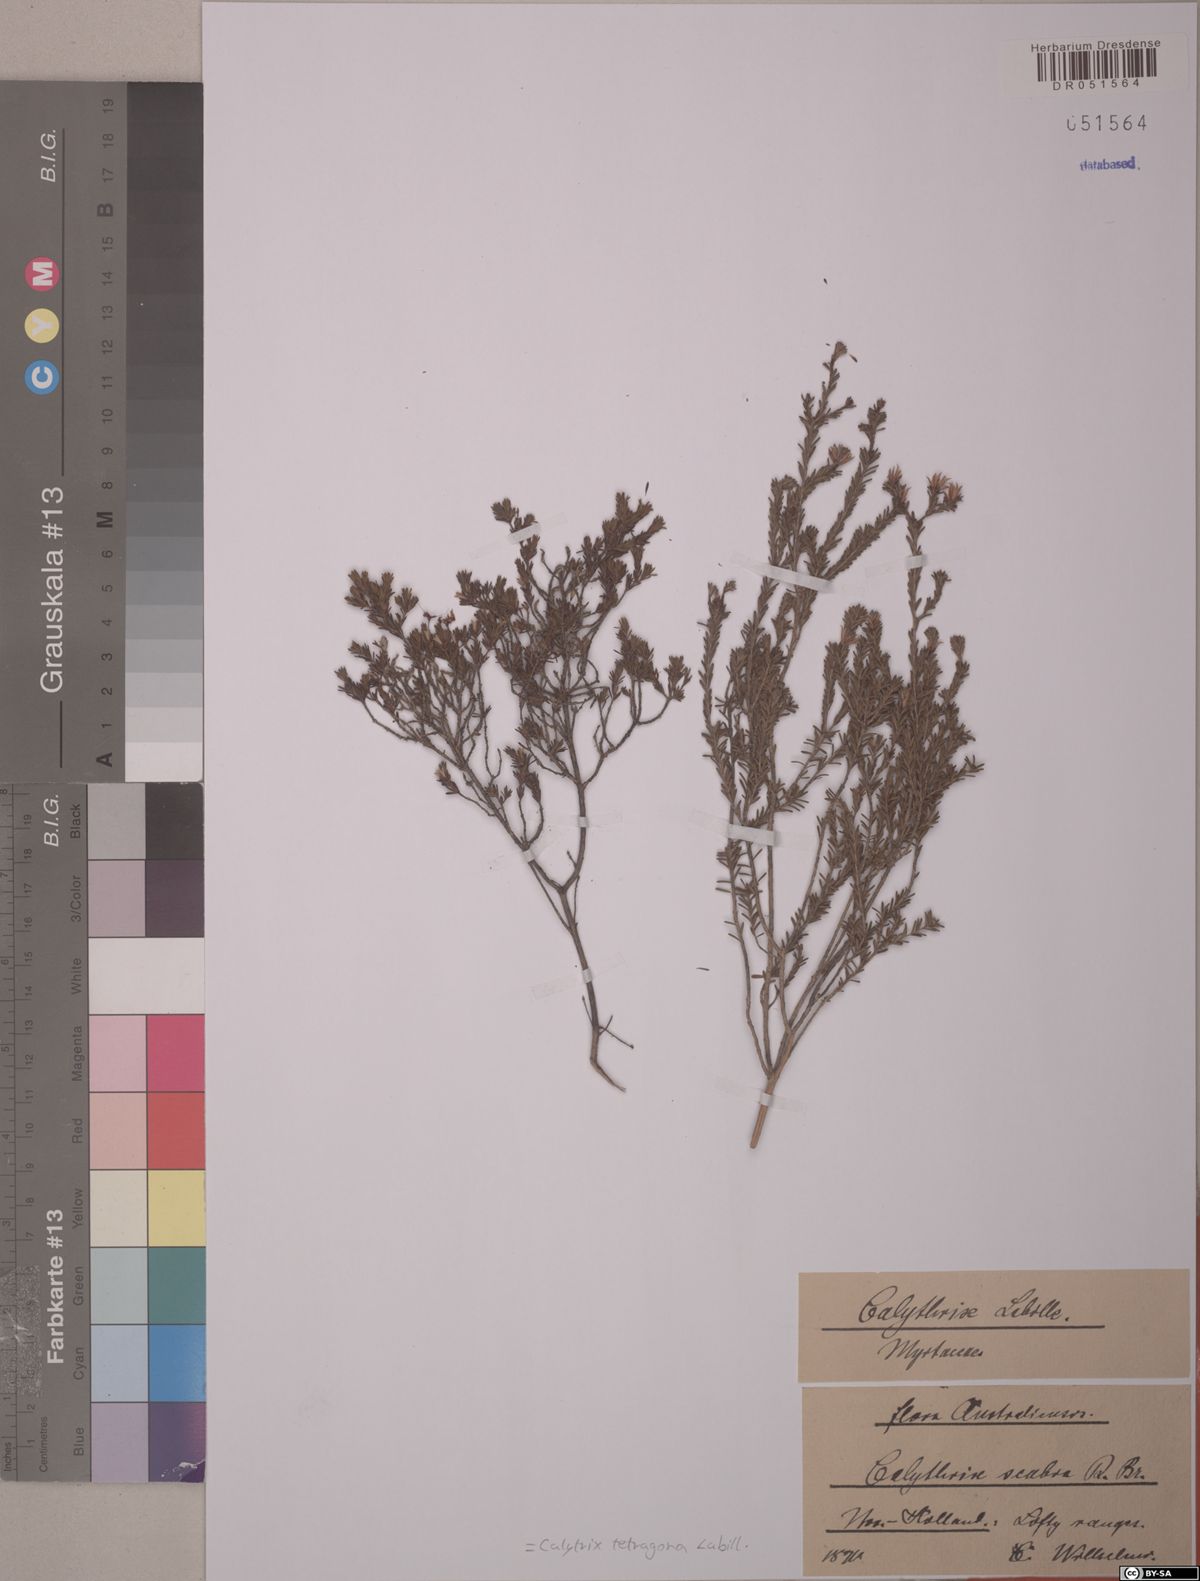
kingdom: Plantae
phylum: Tracheophyta
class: Magnoliopsida
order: Myrtales
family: Myrtaceae
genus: Calytrix
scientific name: Calytrix tetragona
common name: Common fringe myrtle
